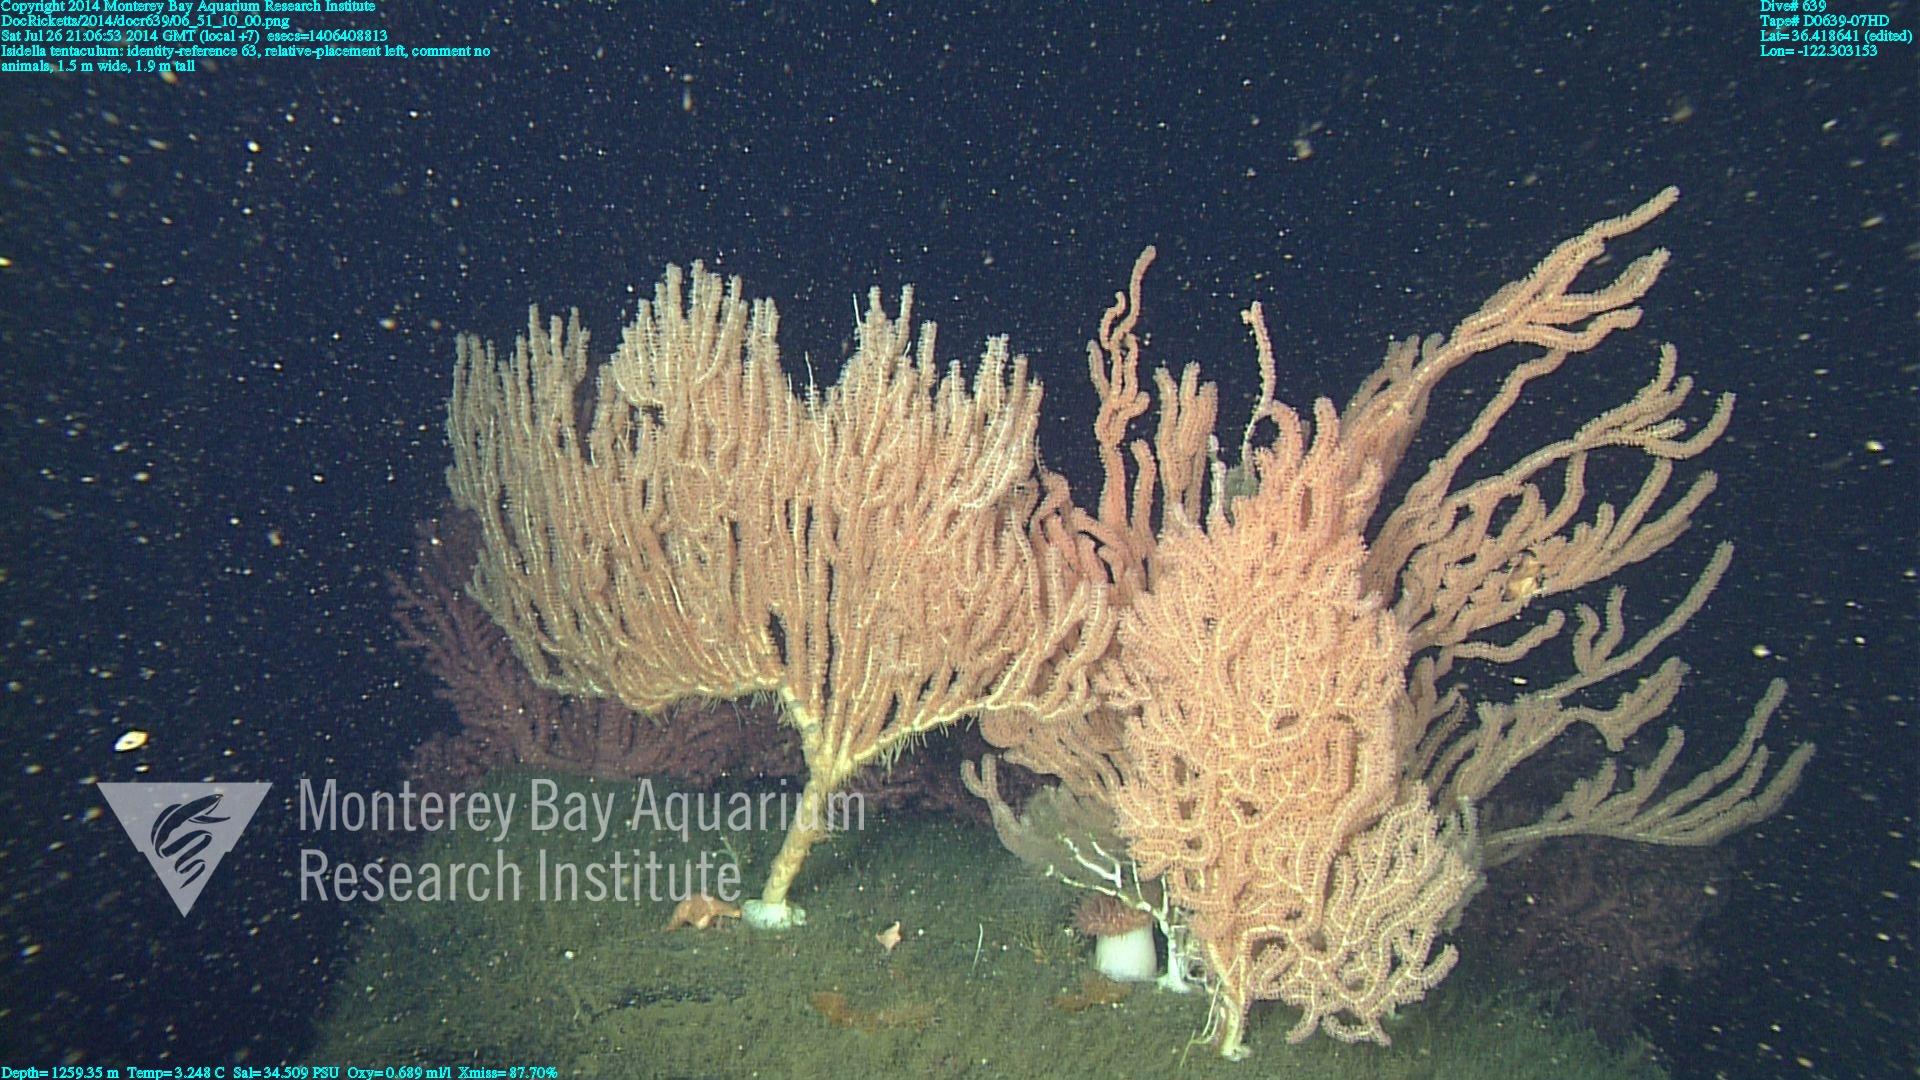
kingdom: Animalia
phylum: Cnidaria
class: Anthozoa
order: Scleralcyonacea
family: Keratoisididae
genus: Isidella
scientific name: Isidella tentaculum
